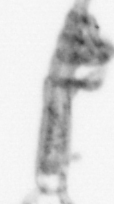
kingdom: Animalia
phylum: Arthropoda
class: Copepoda
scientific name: Copepoda
